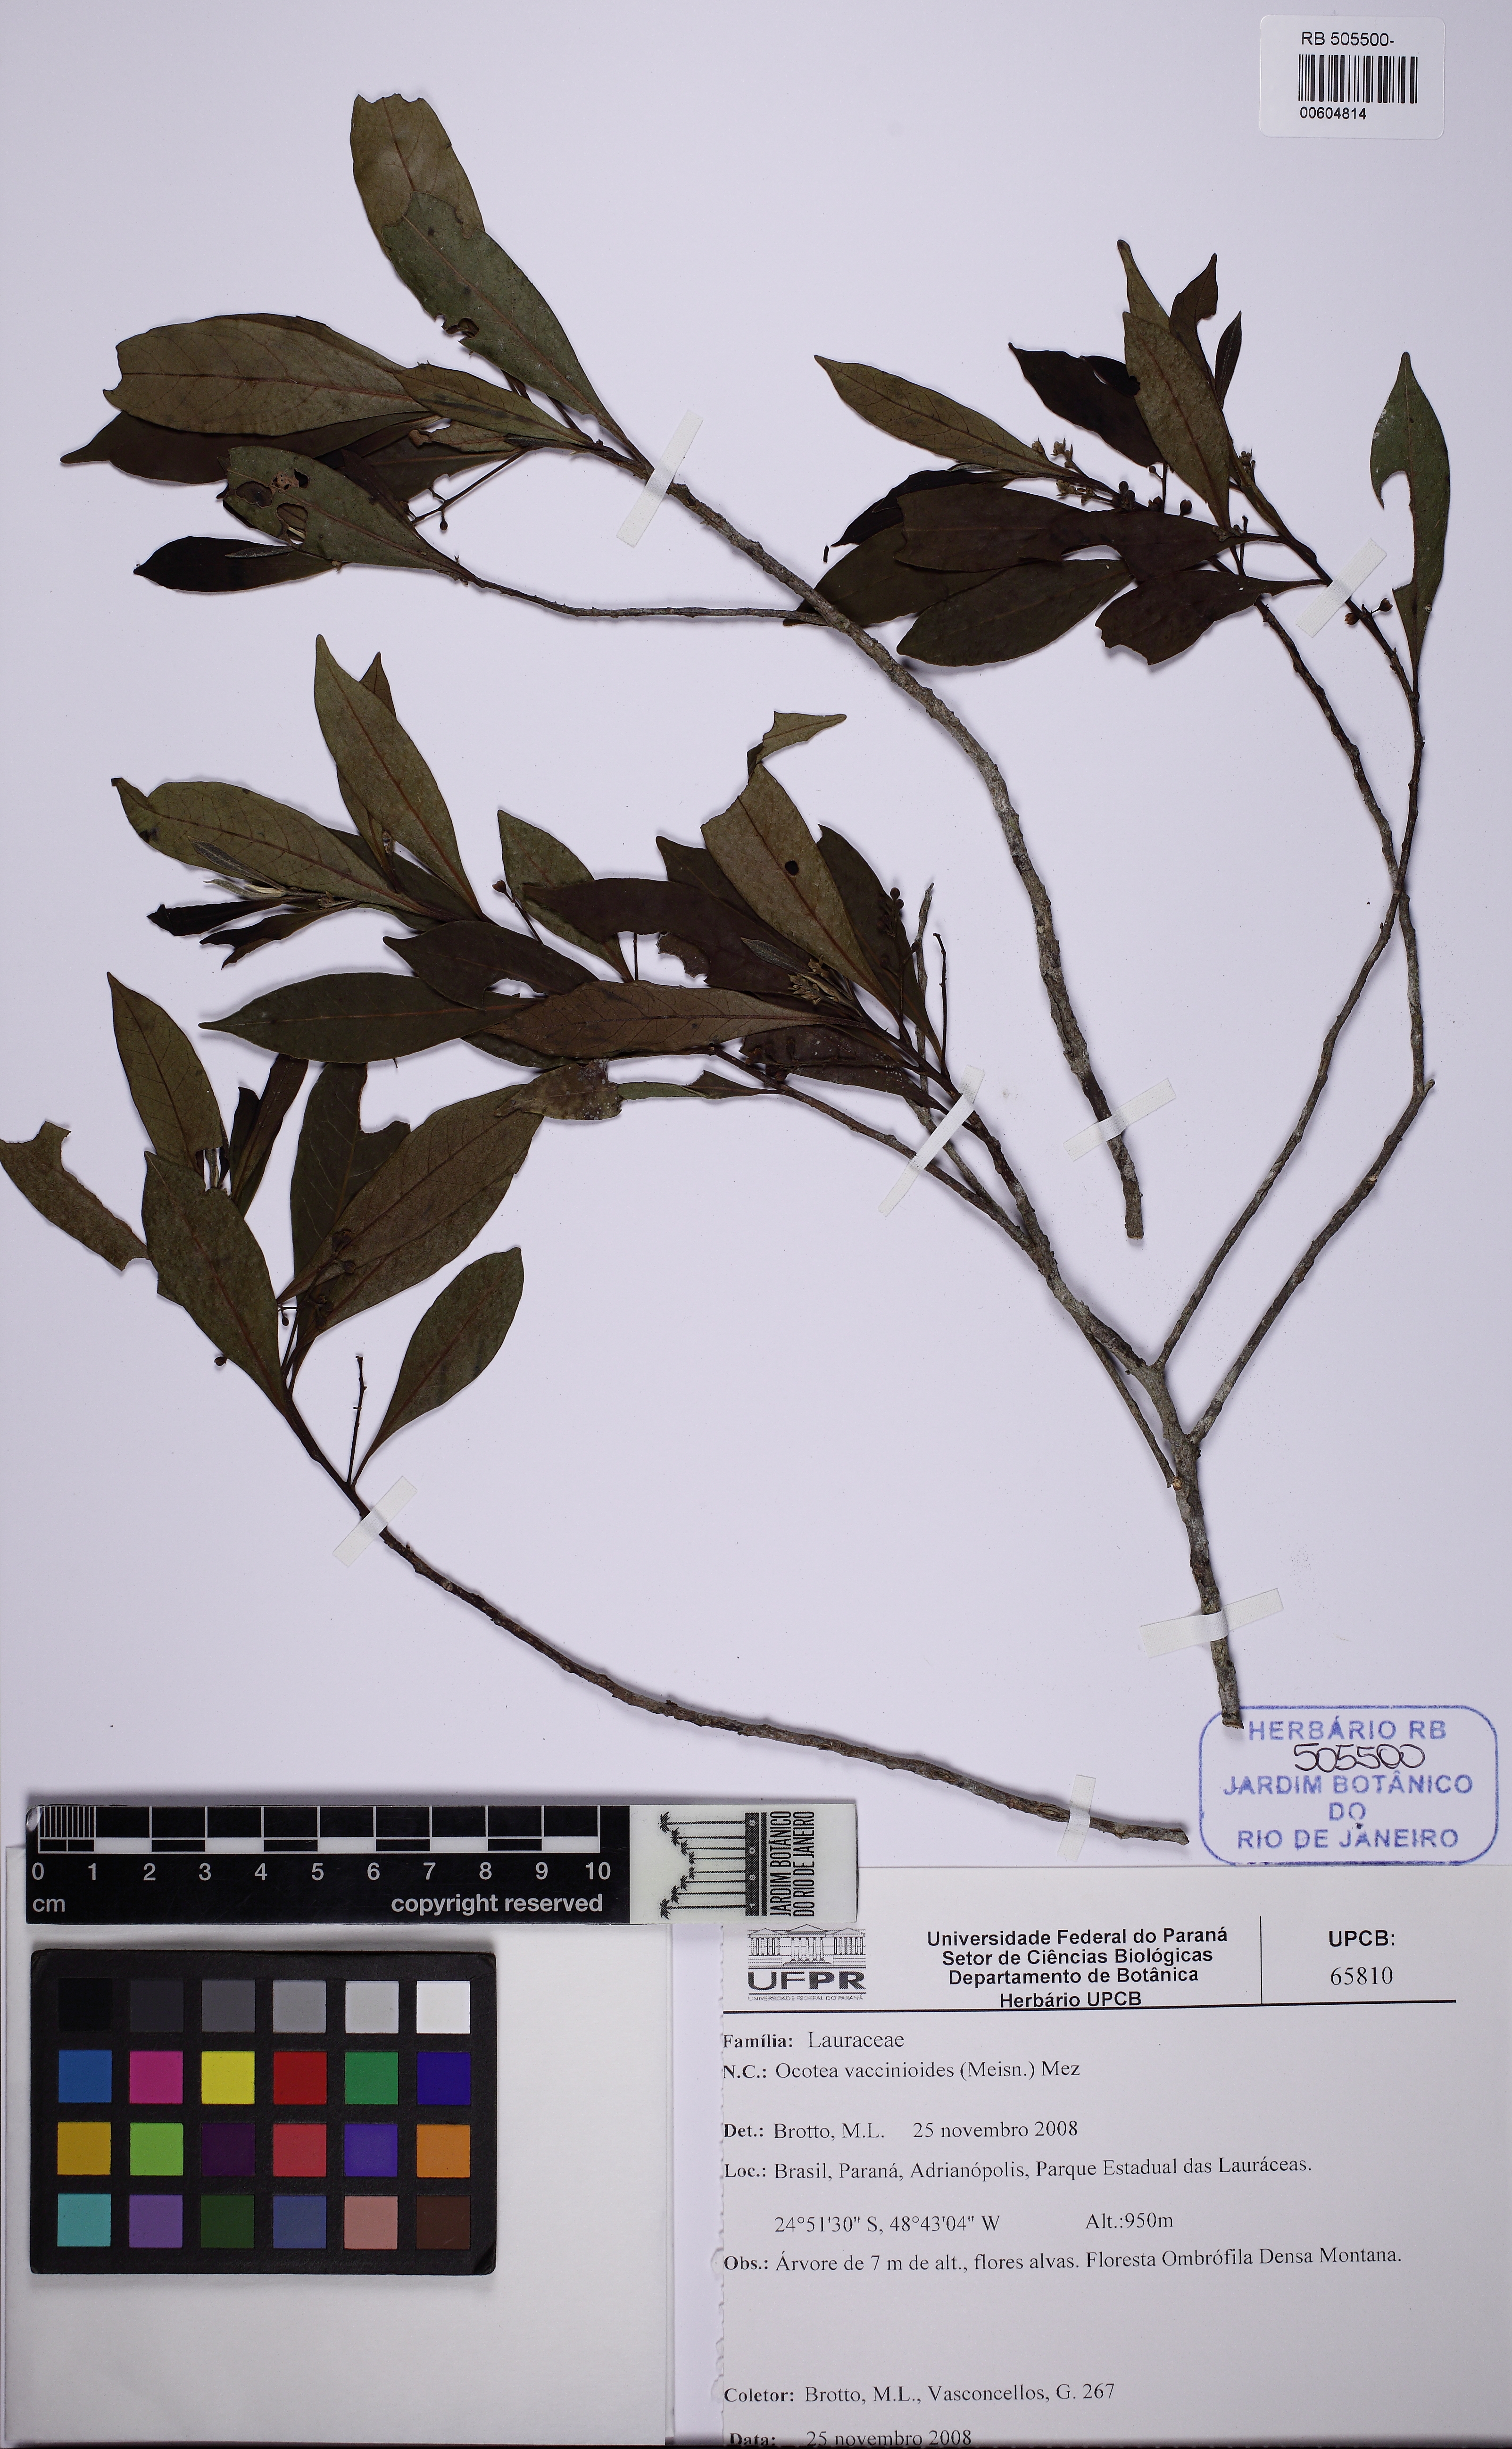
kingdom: Plantae
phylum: Tracheophyta
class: Magnoliopsida
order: Laurales
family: Lauraceae
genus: Ocotea
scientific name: Ocotea vaccinioides
